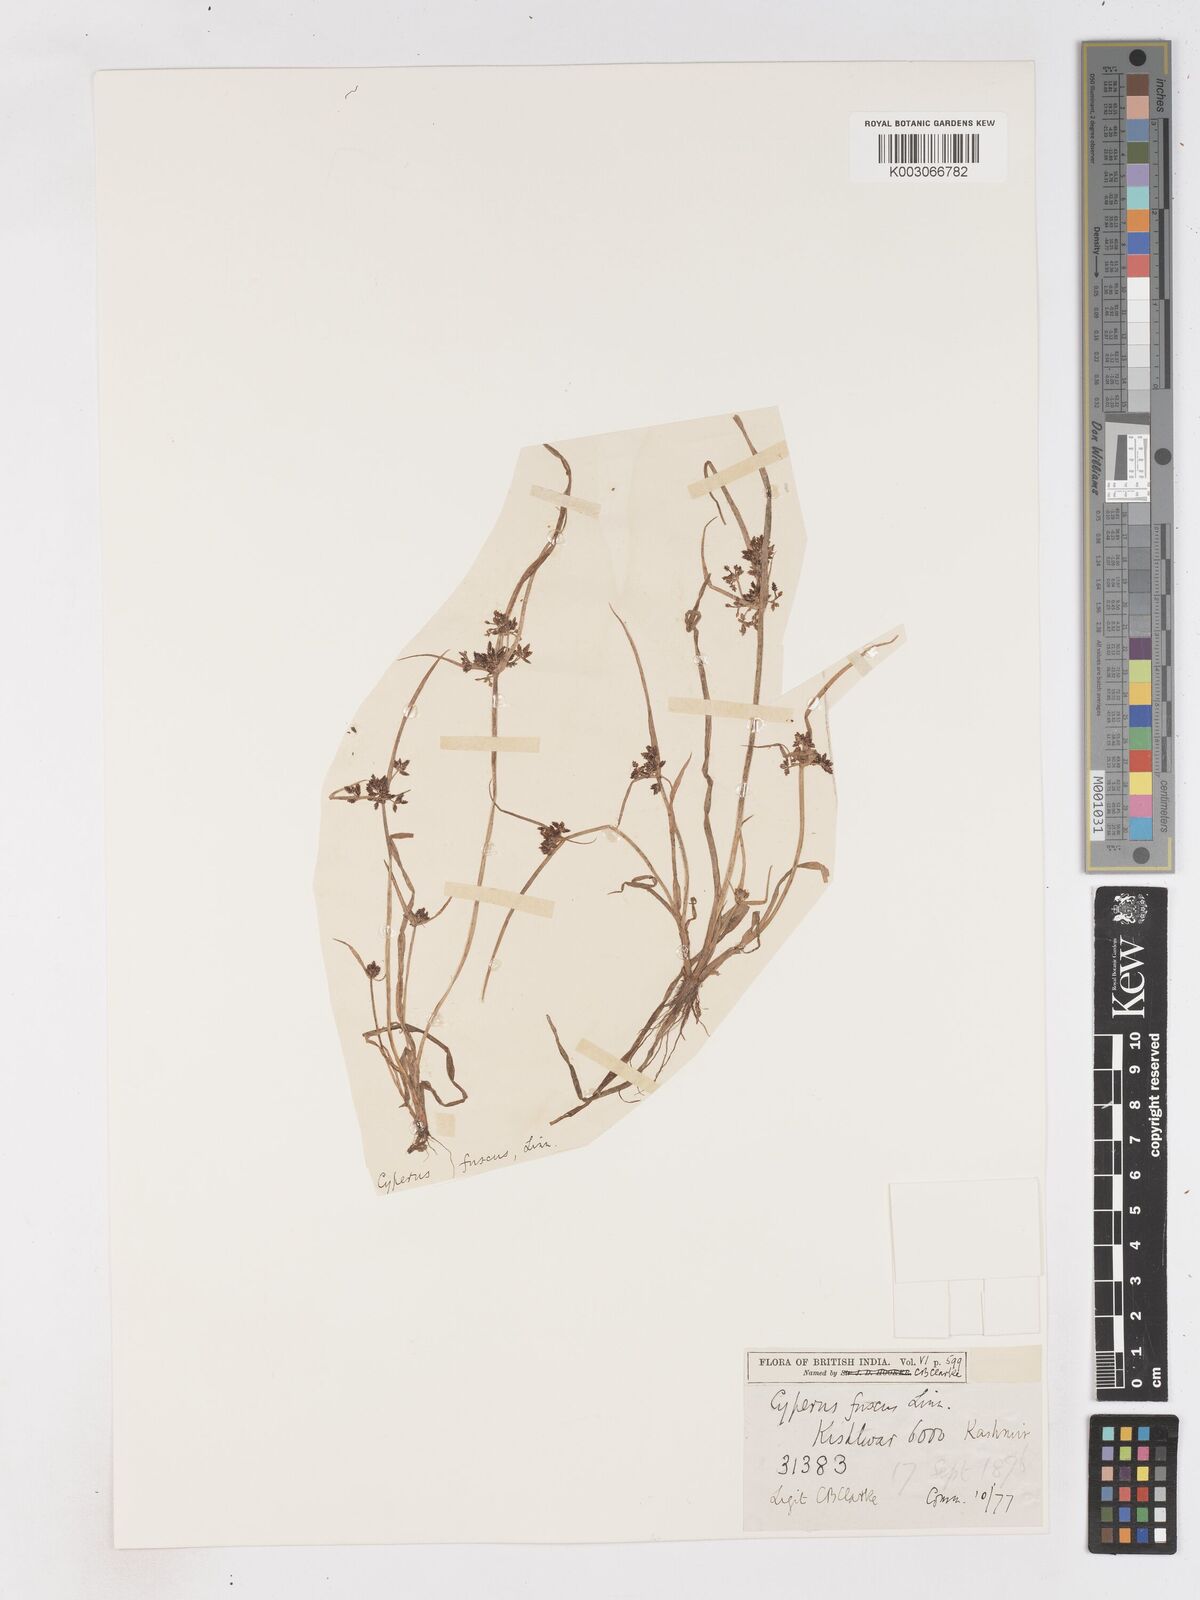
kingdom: Plantae
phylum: Tracheophyta
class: Liliopsida
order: Poales
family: Cyperaceae
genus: Cyperus
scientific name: Cyperus fuscus
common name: Brown galingale
